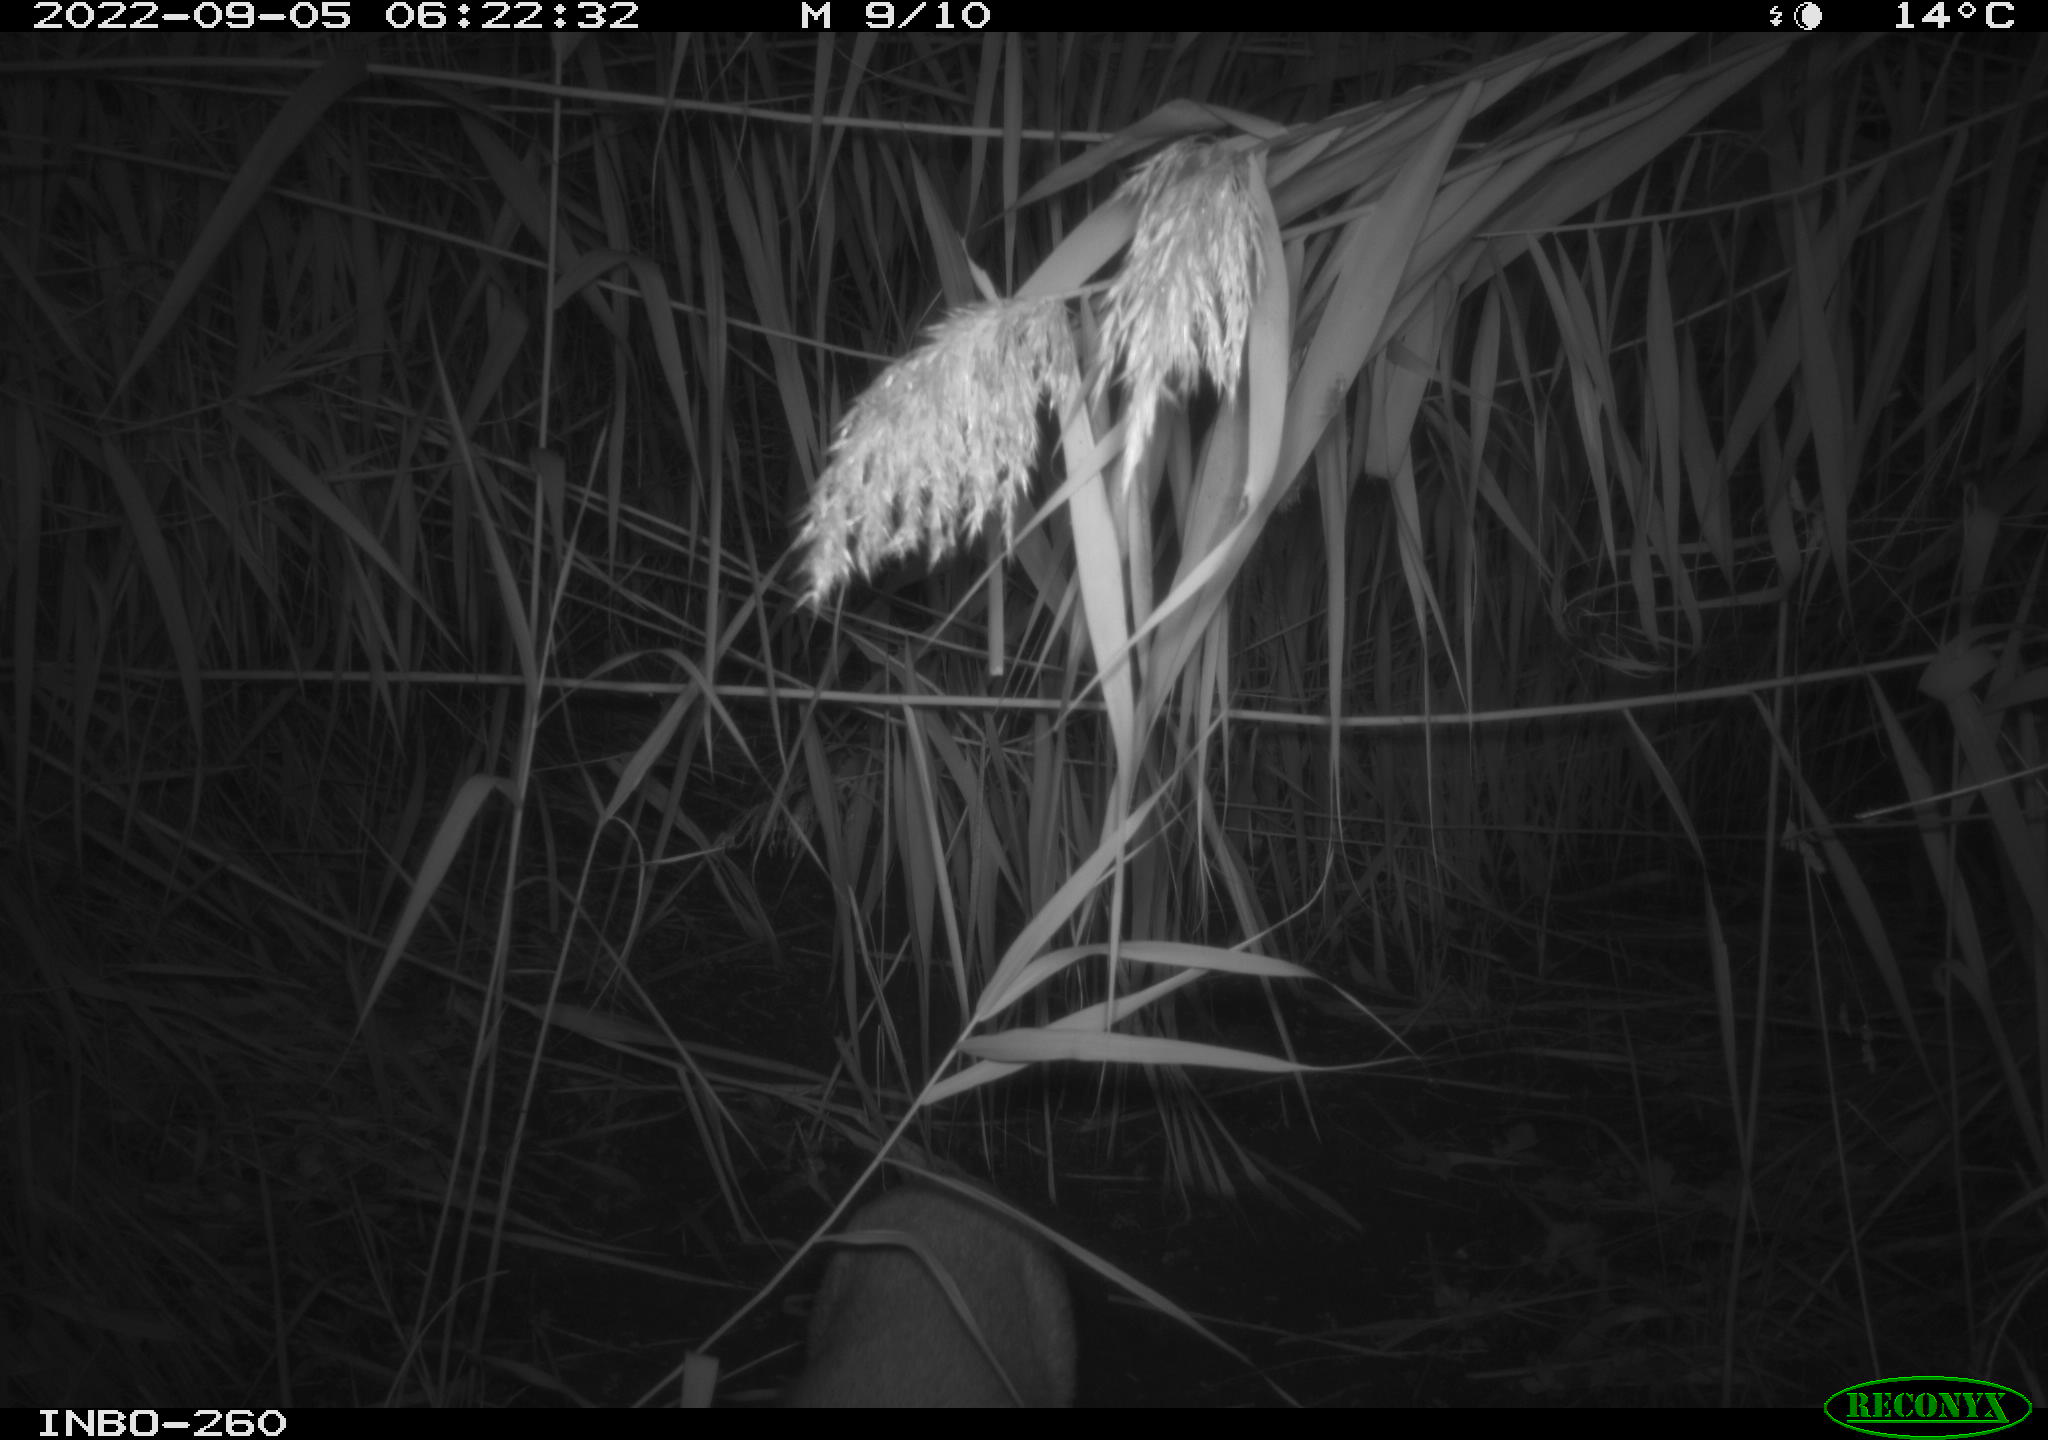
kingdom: Animalia
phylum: Chordata
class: Mammalia
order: Carnivora
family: Canidae
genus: Vulpes
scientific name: Vulpes vulpes
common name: Red fox
